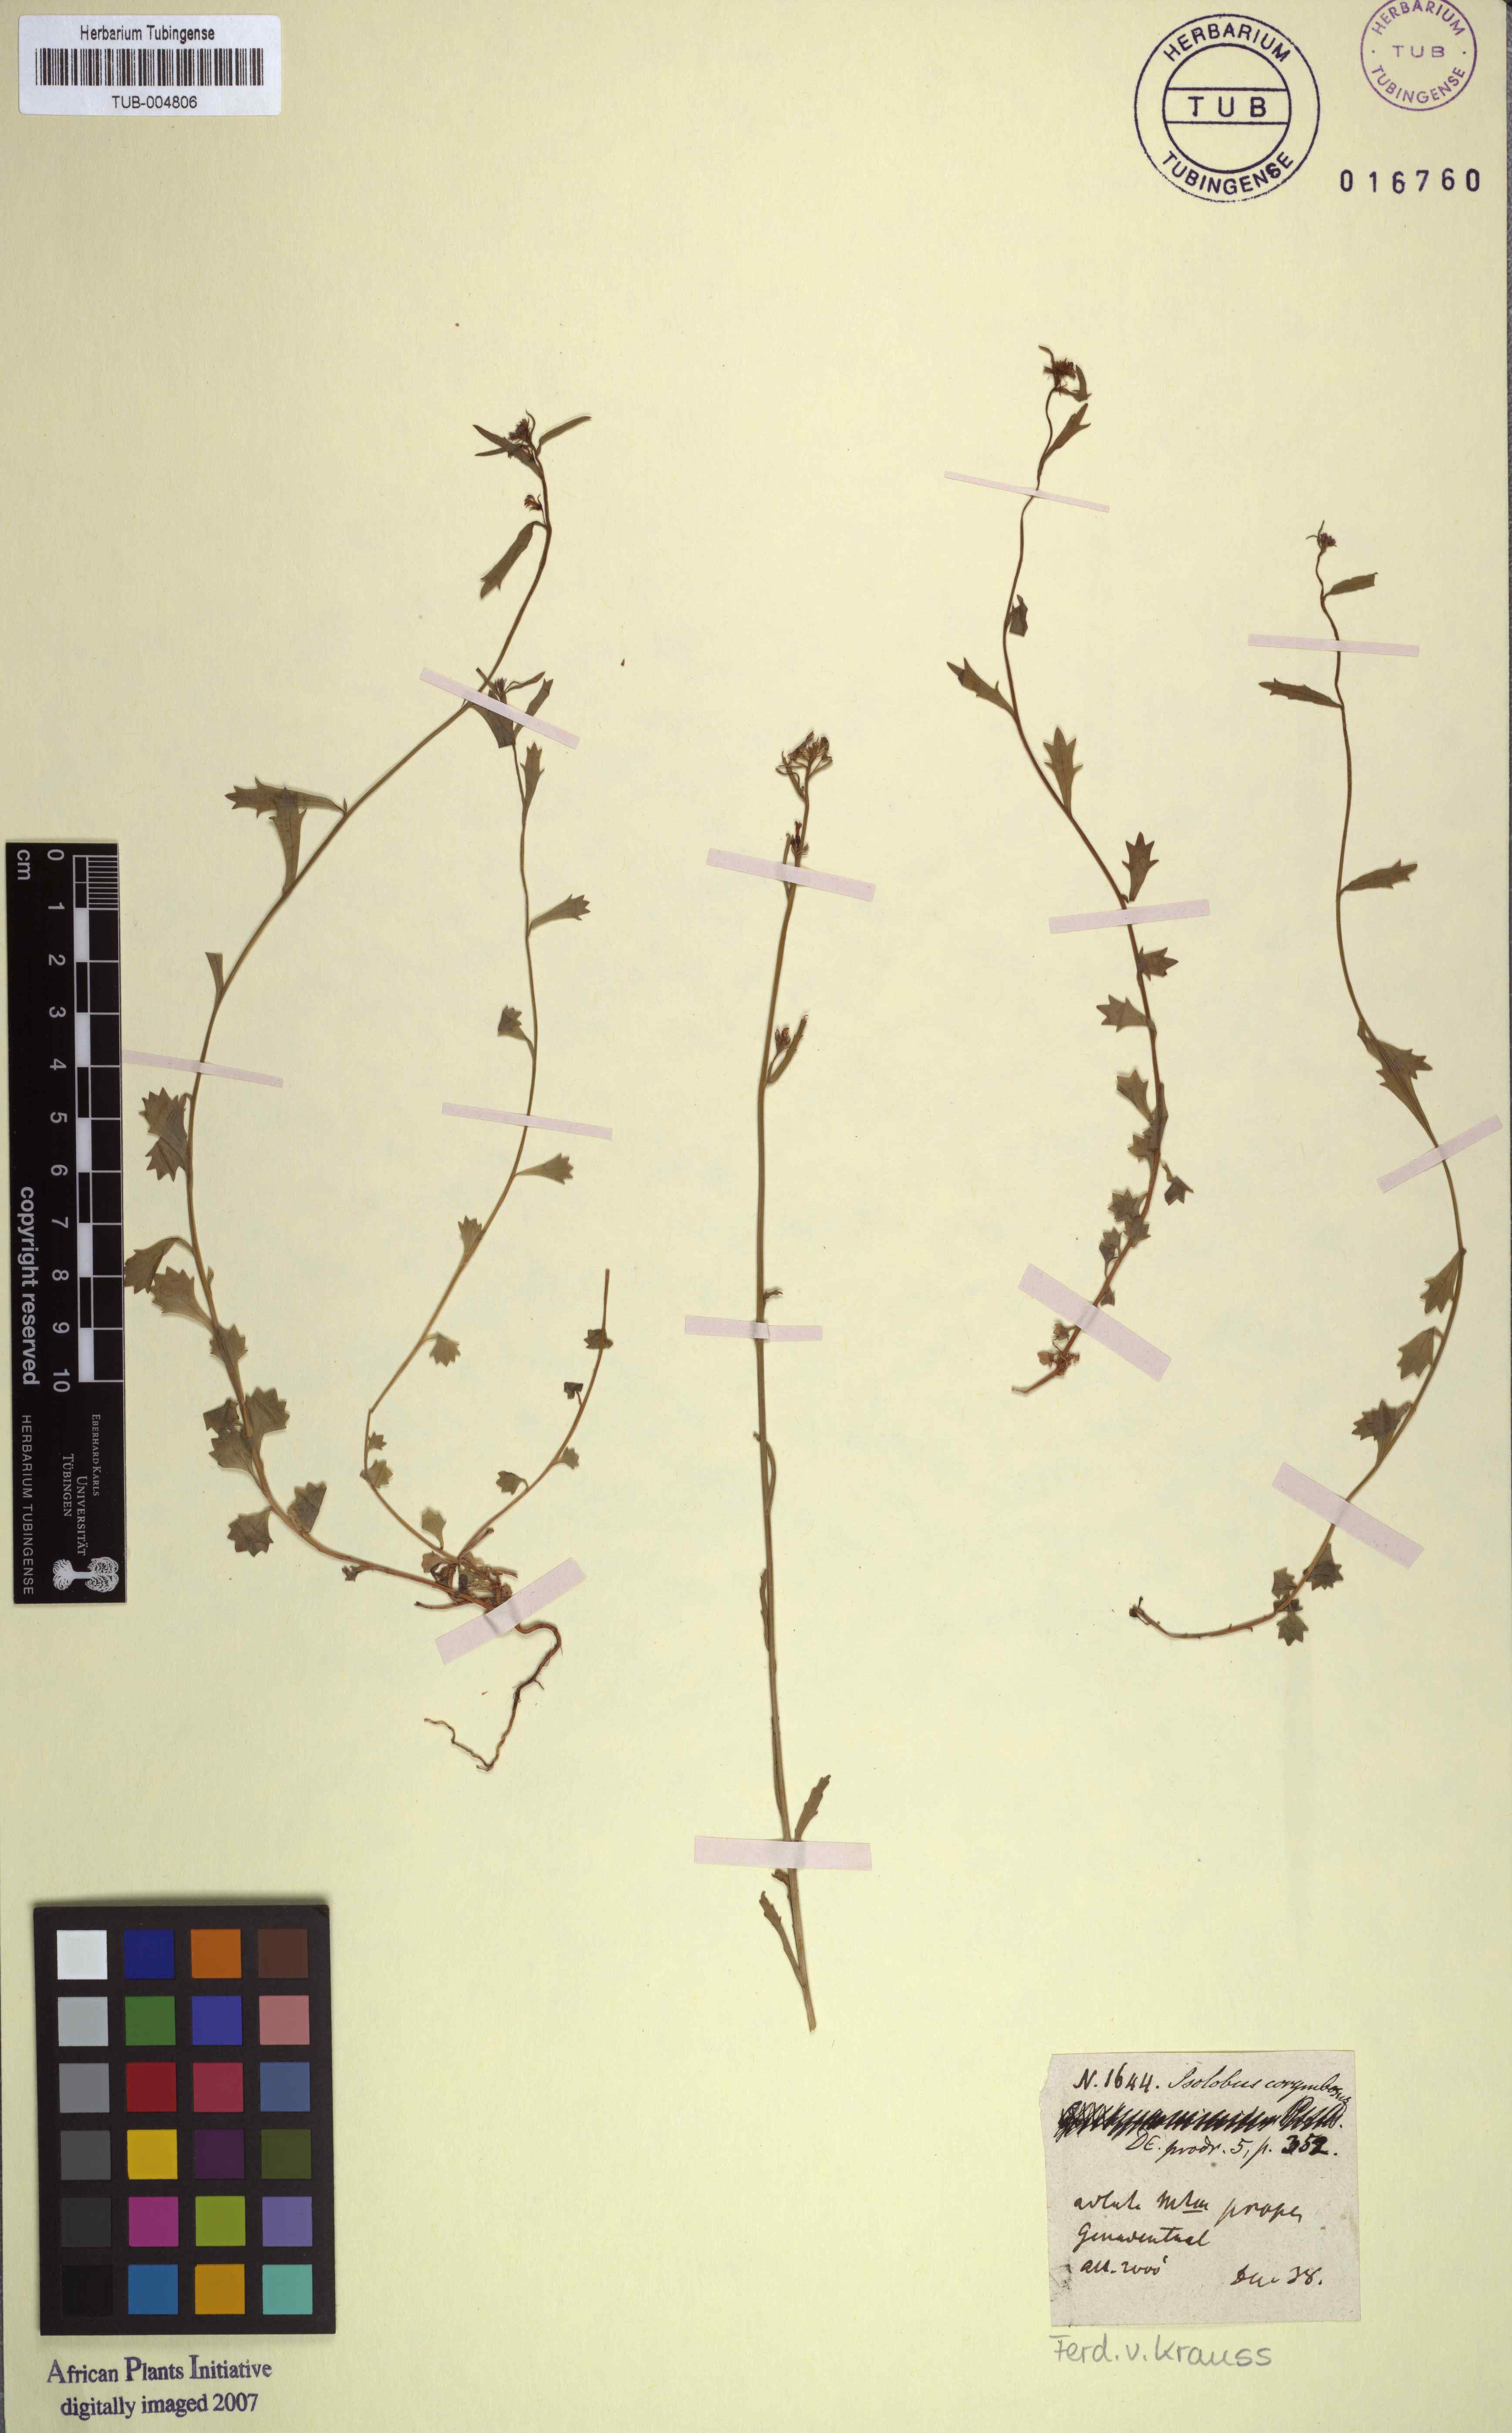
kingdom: Plantae
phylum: Tracheophyta
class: Magnoliopsida
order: Asterales
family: Campanulaceae
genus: Lobelia
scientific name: Lobelia jasionoides
